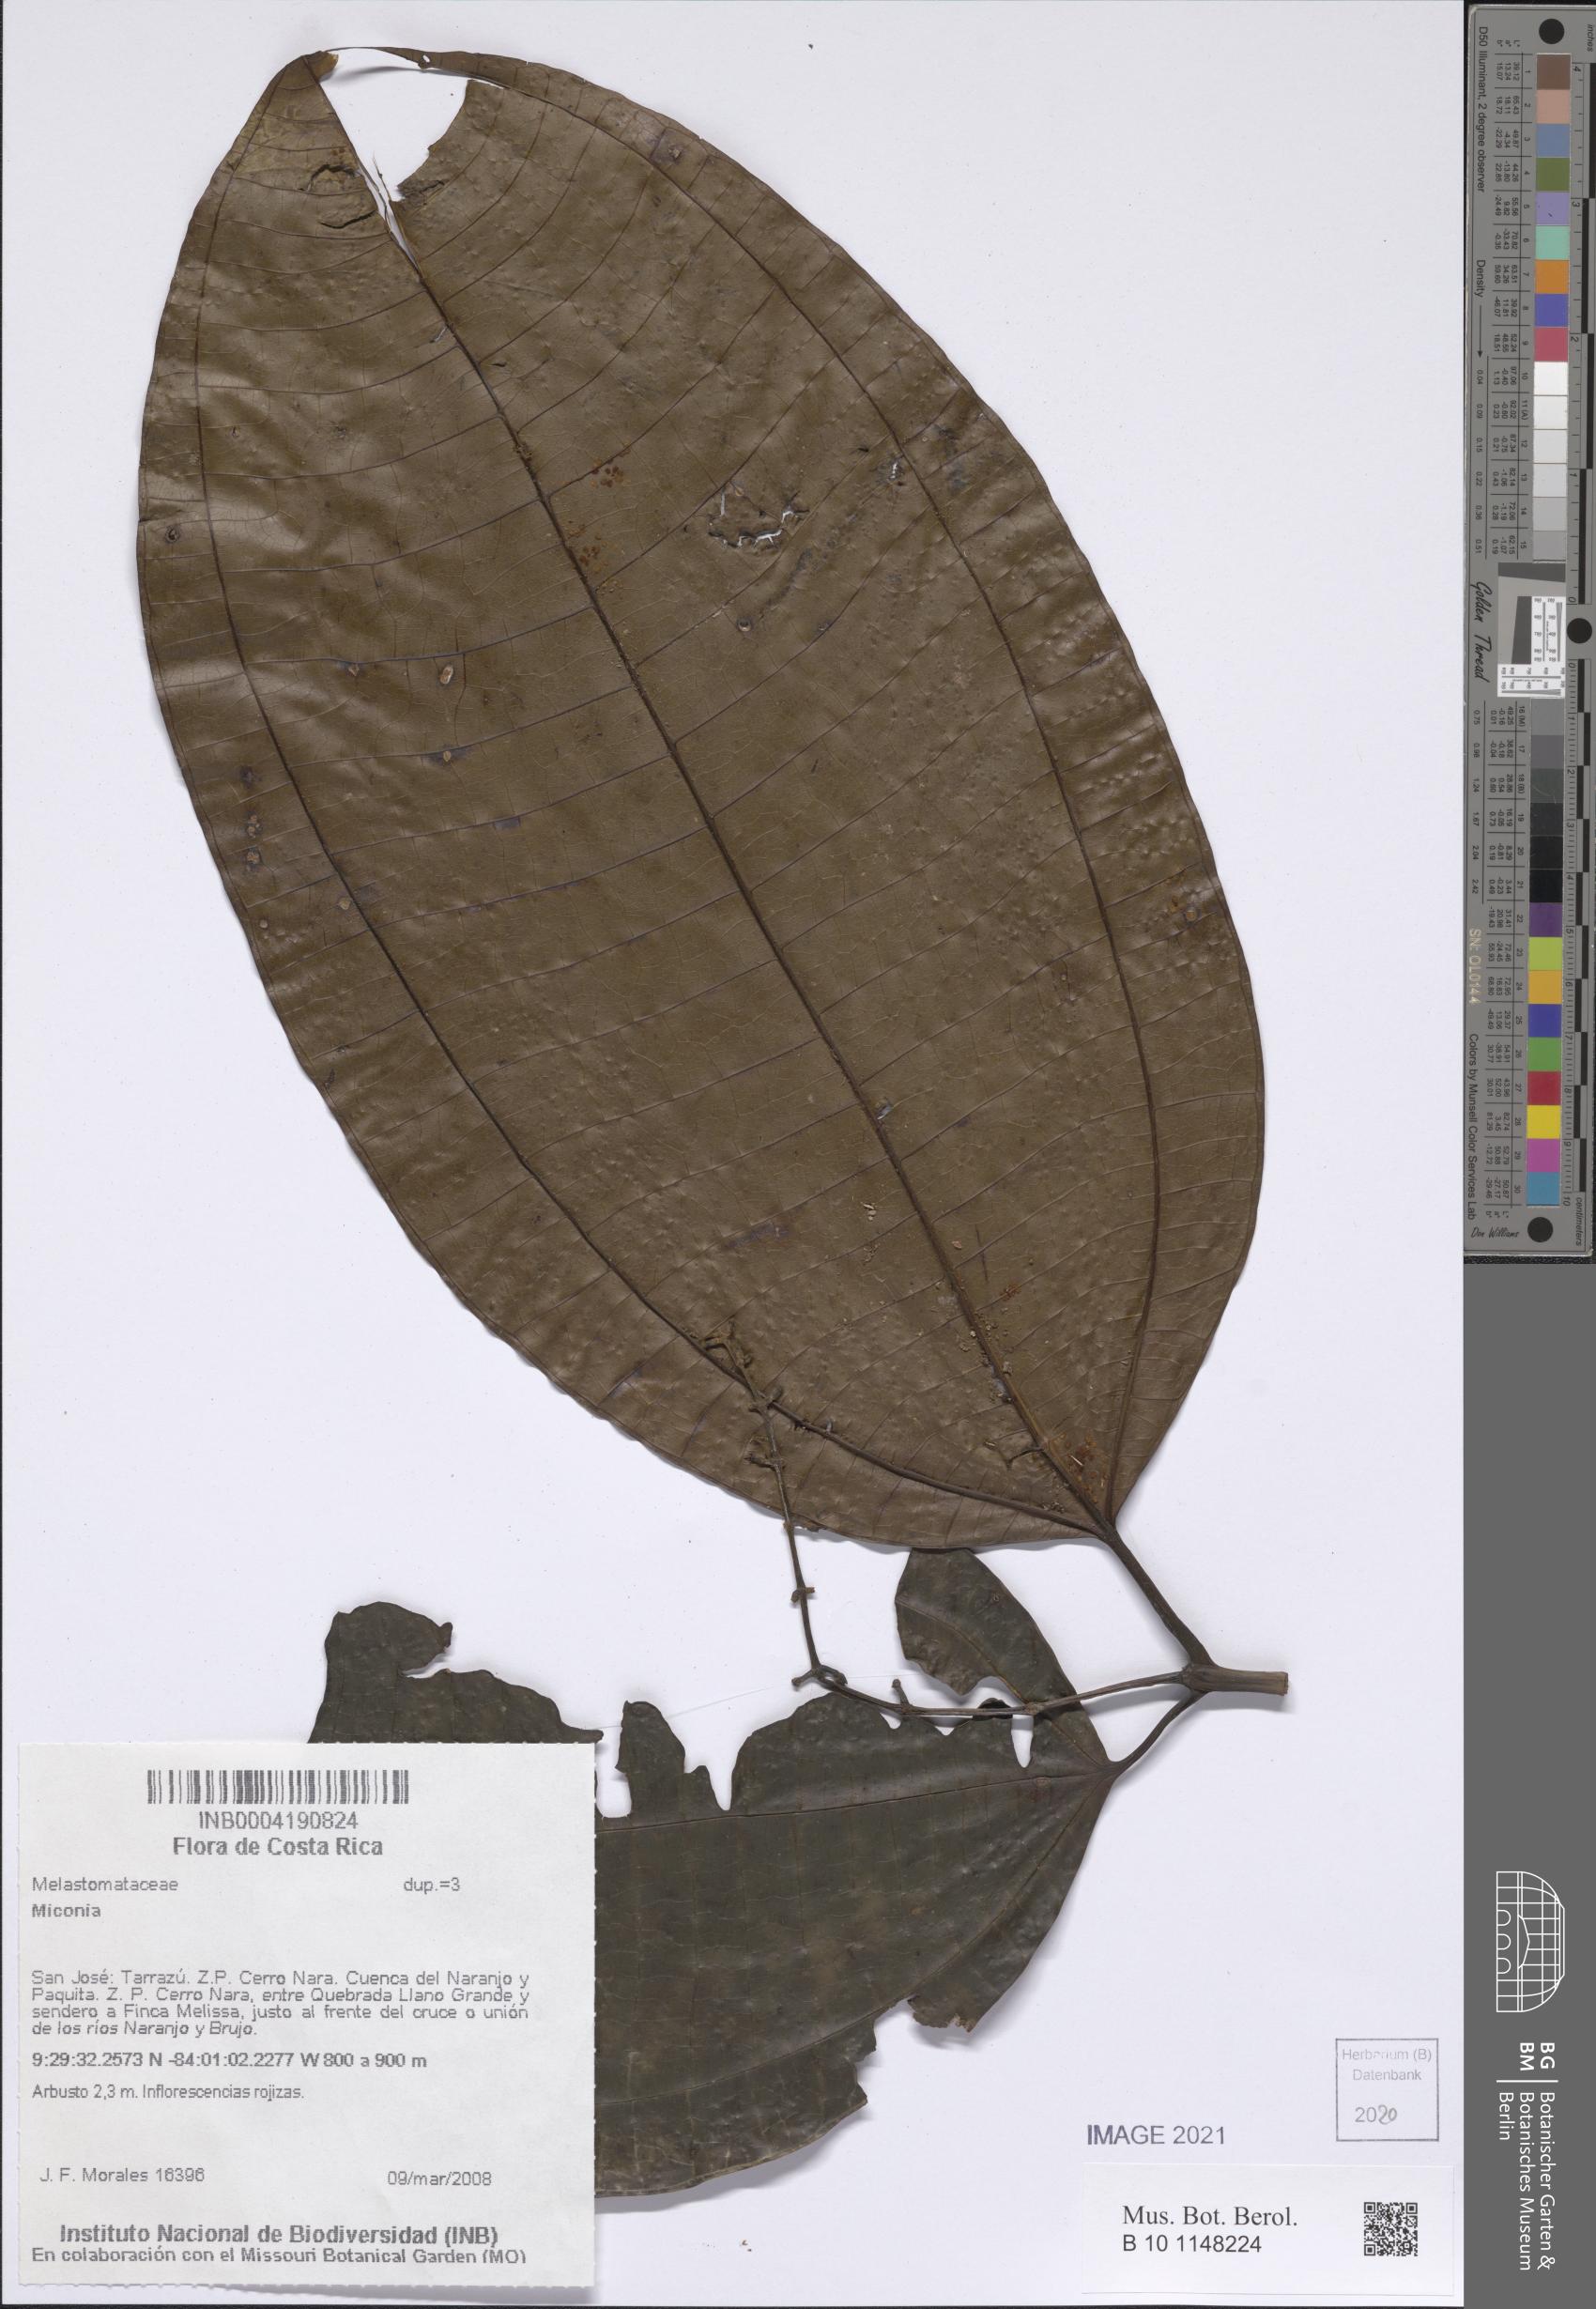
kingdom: Plantae
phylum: Tracheophyta
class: Magnoliopsida
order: Myrtales
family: Melastomataceae
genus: Miconia
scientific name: Miconia
